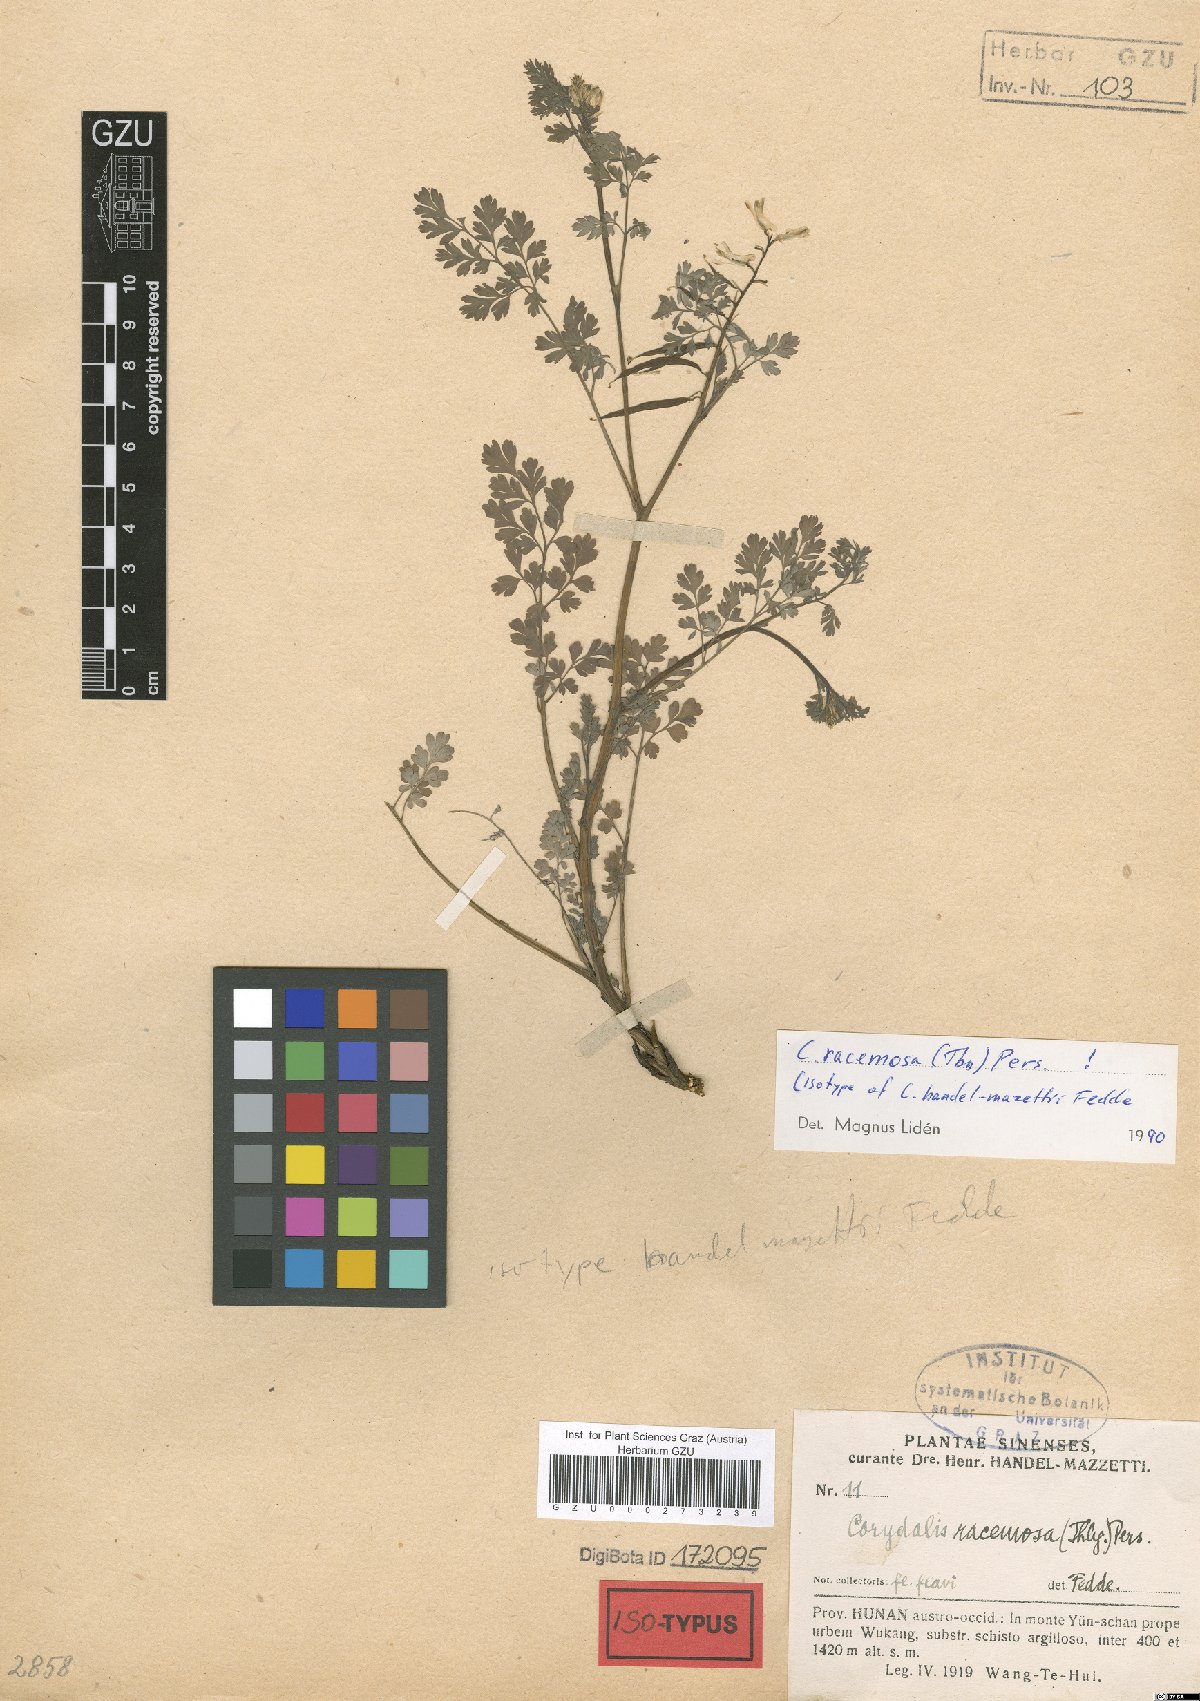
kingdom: Plantae
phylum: Tracheophyta
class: Magnoliopsida
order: Ranunculales
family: Papaveraceae
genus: Corydalis
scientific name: Corydalis racemosa
